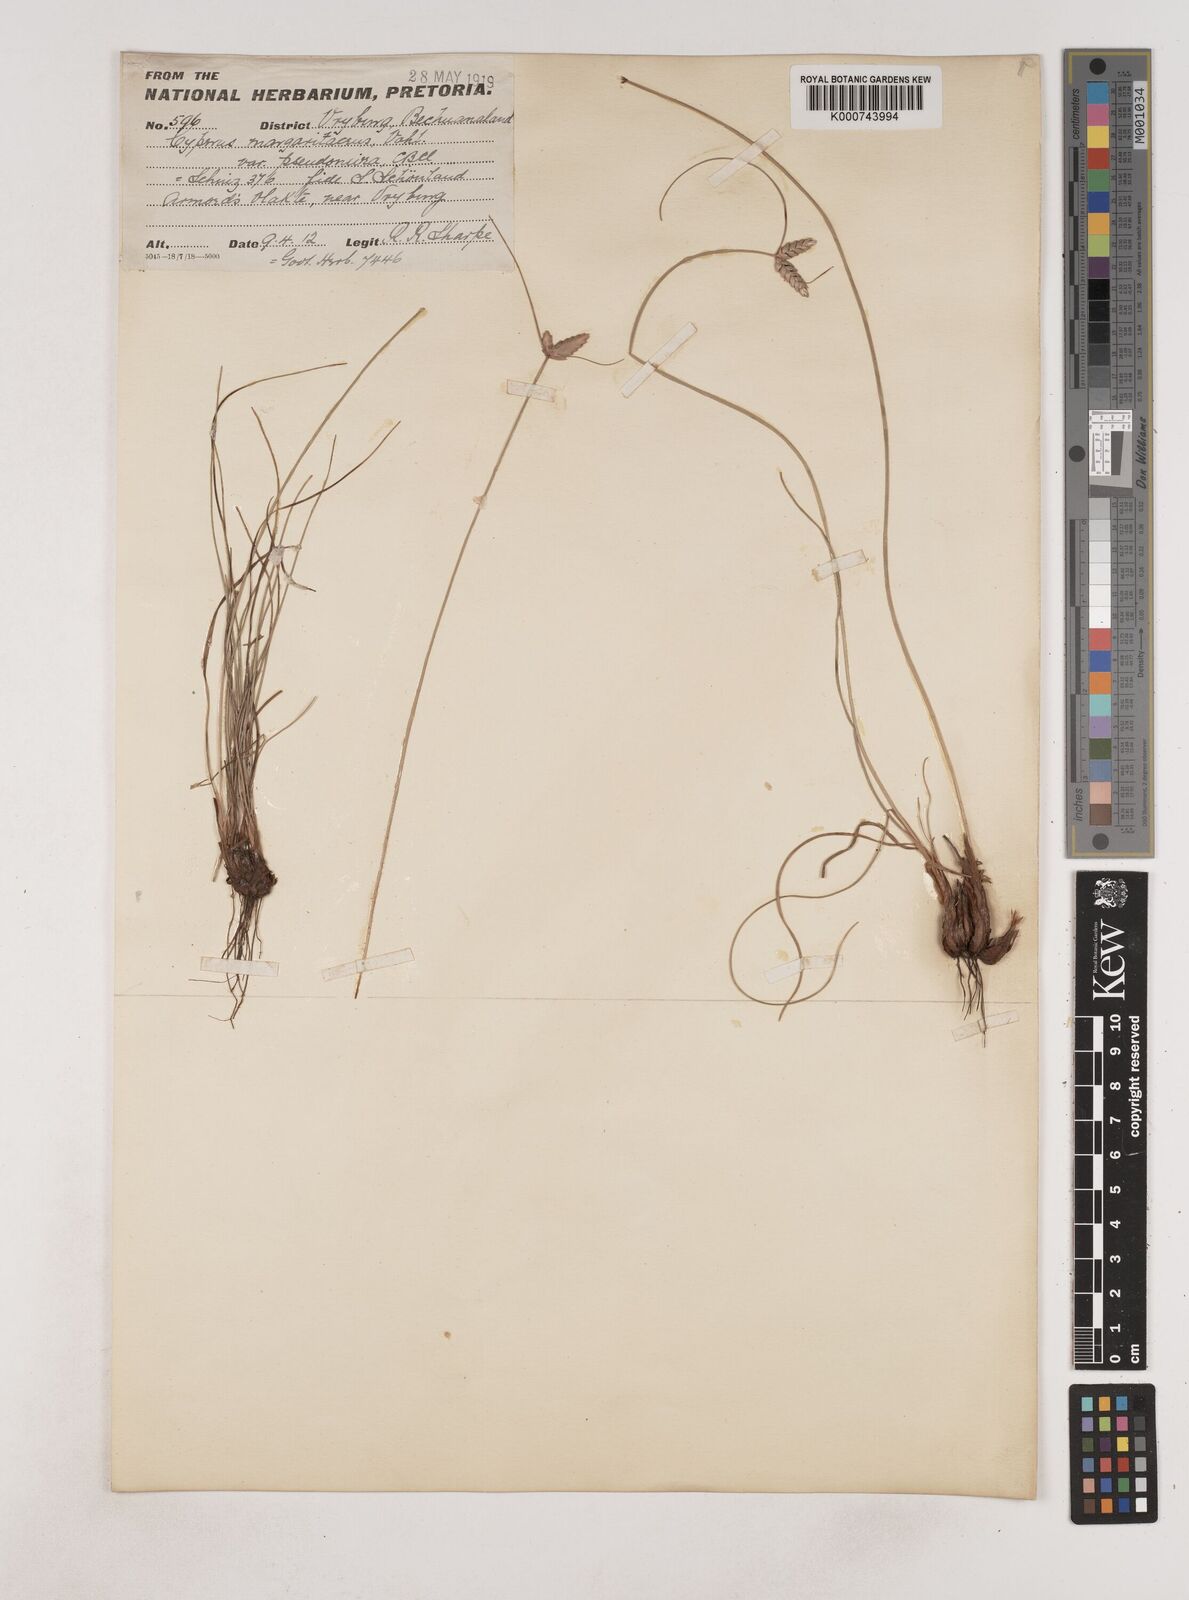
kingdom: Plantae
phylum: Tracheophyta
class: Liliopsida
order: Poales
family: Cyperaceae
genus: Cyperus
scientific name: Cyperus margaritaceus
